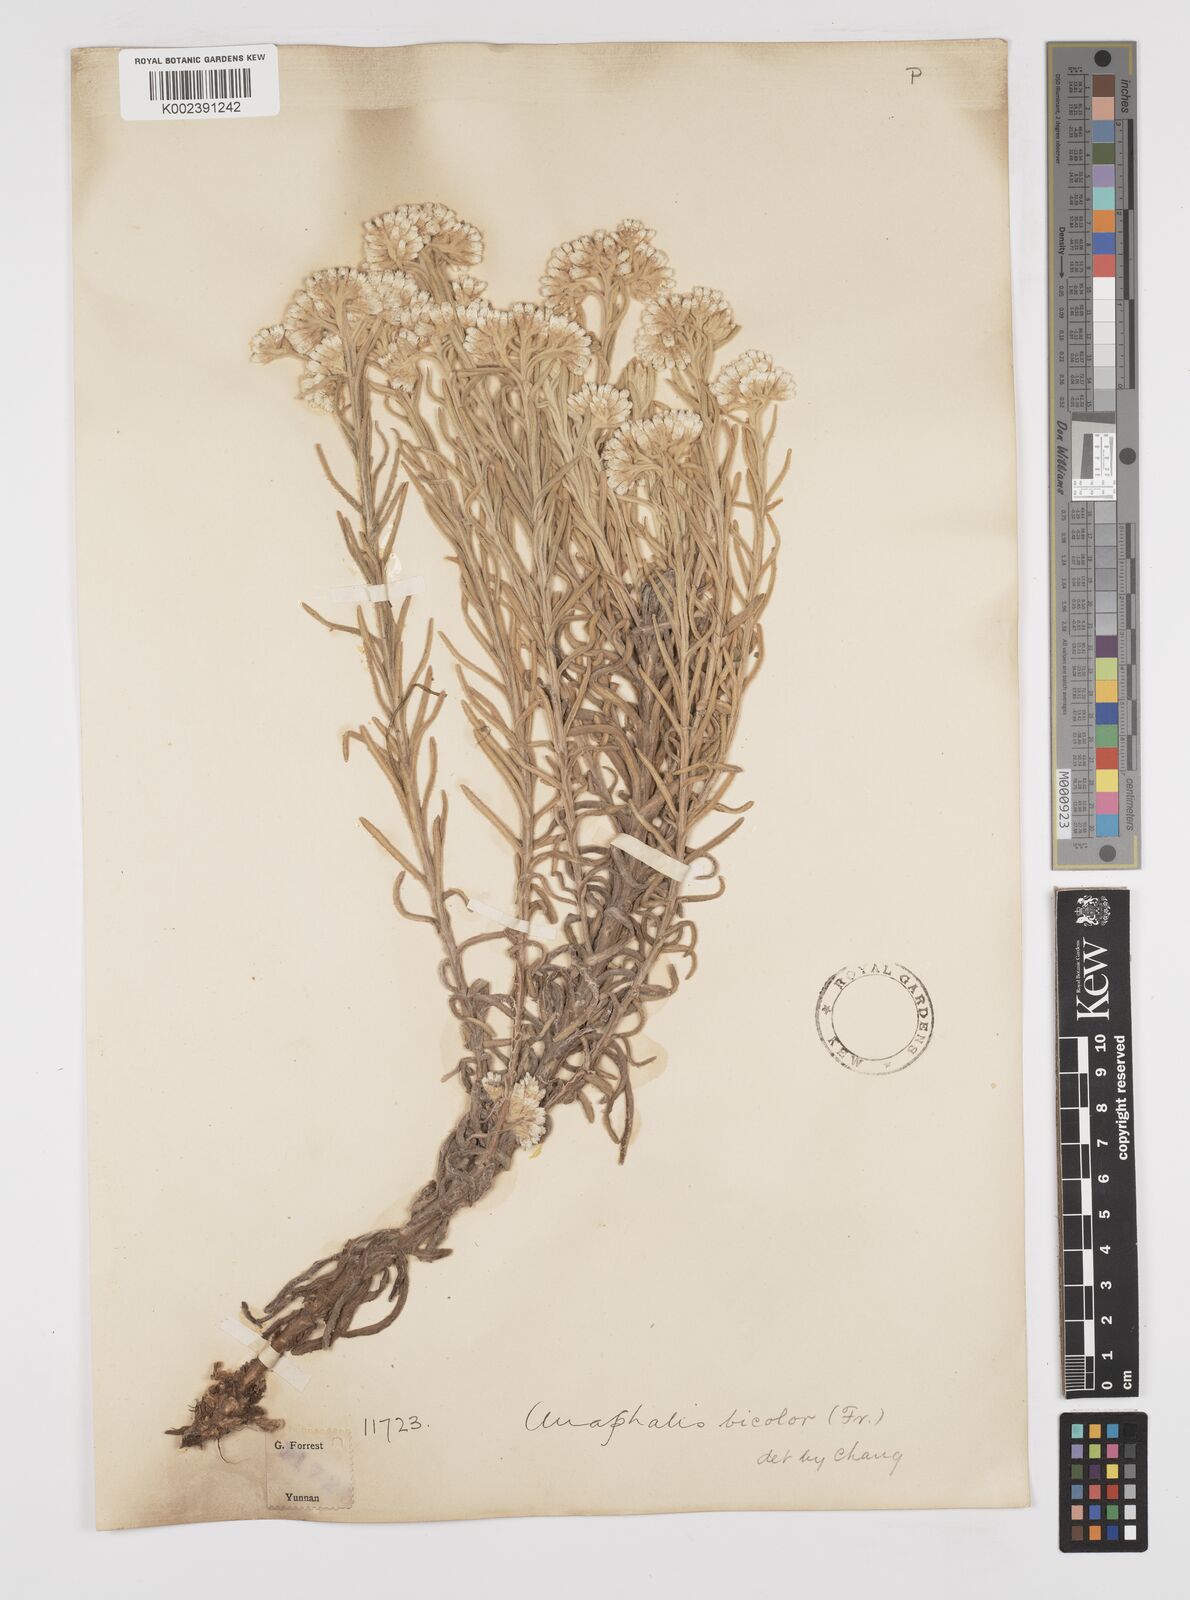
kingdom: Plantae
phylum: Tracheophyta
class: Magnoliopsida
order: Asterales
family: Asteraceae
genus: Anaphalis
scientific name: Anaphalis bicolor
